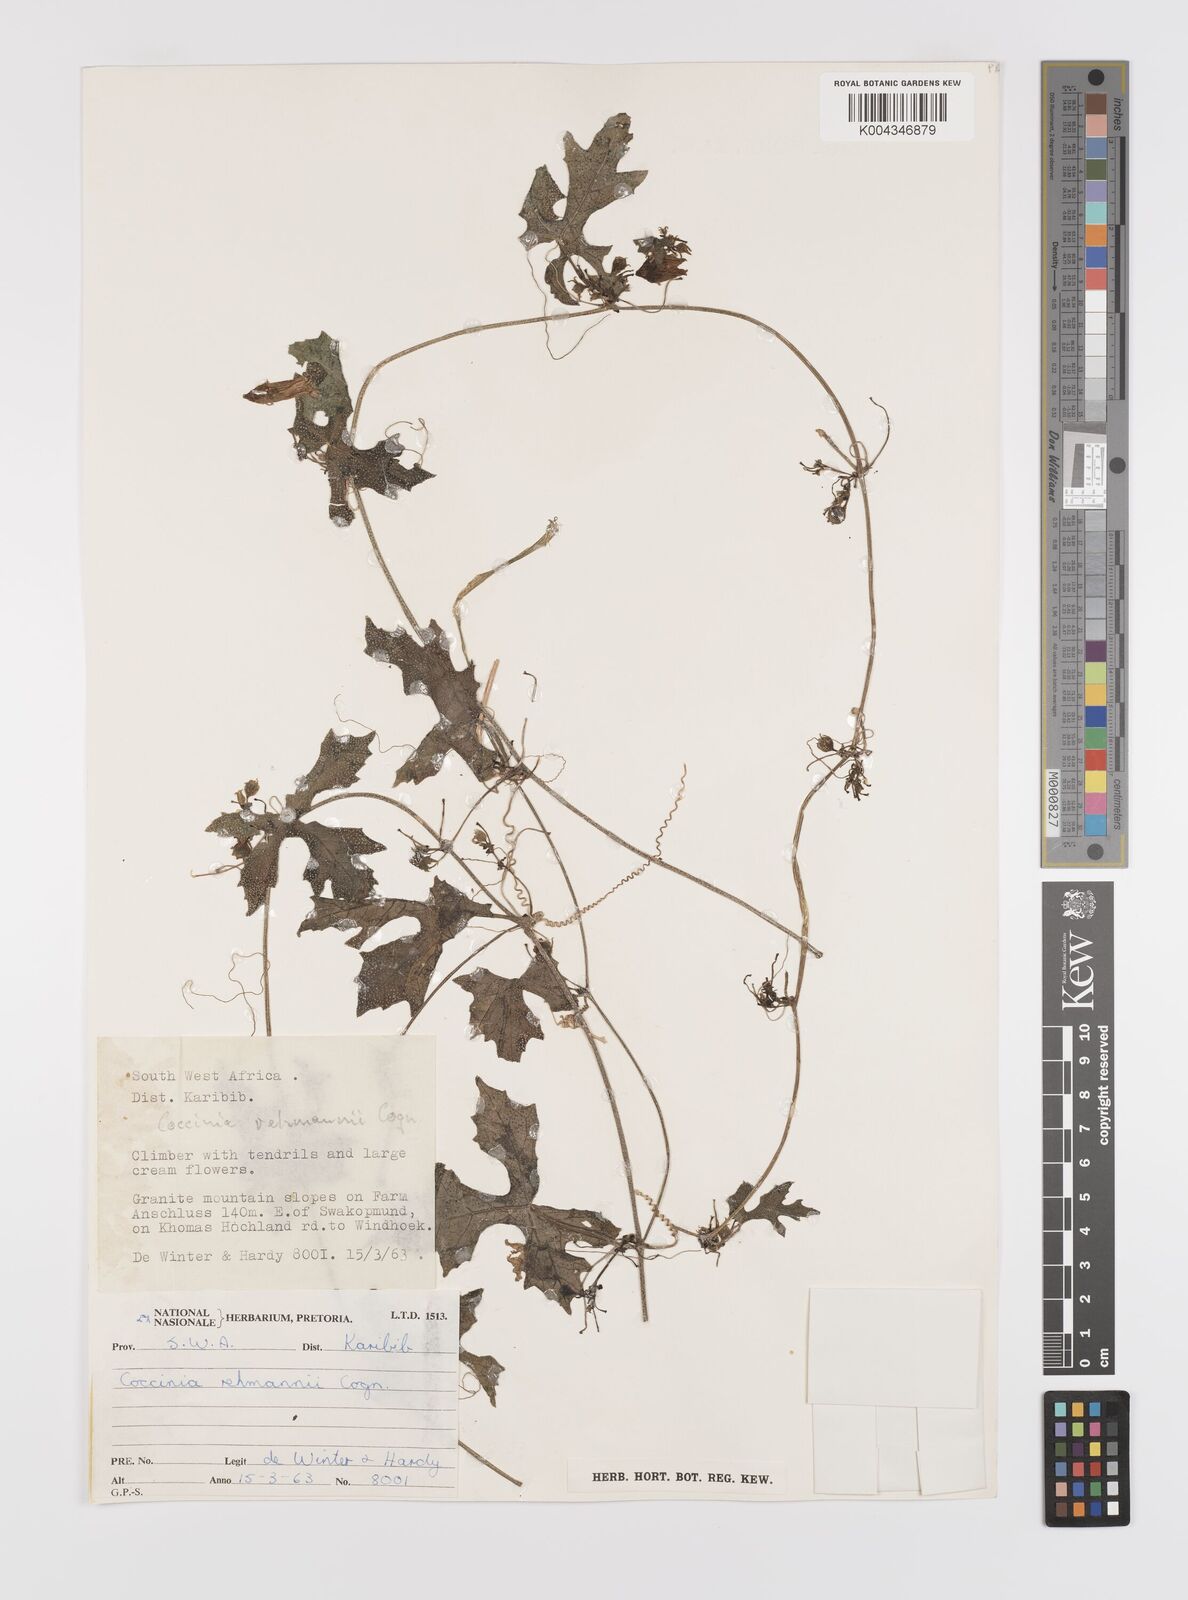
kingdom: Plantae
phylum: Tracheophyta
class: Magnoliopsida
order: Cucurbitales
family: Cucurbitaceae
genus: Coccinia
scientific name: Coccinia rehmannii
